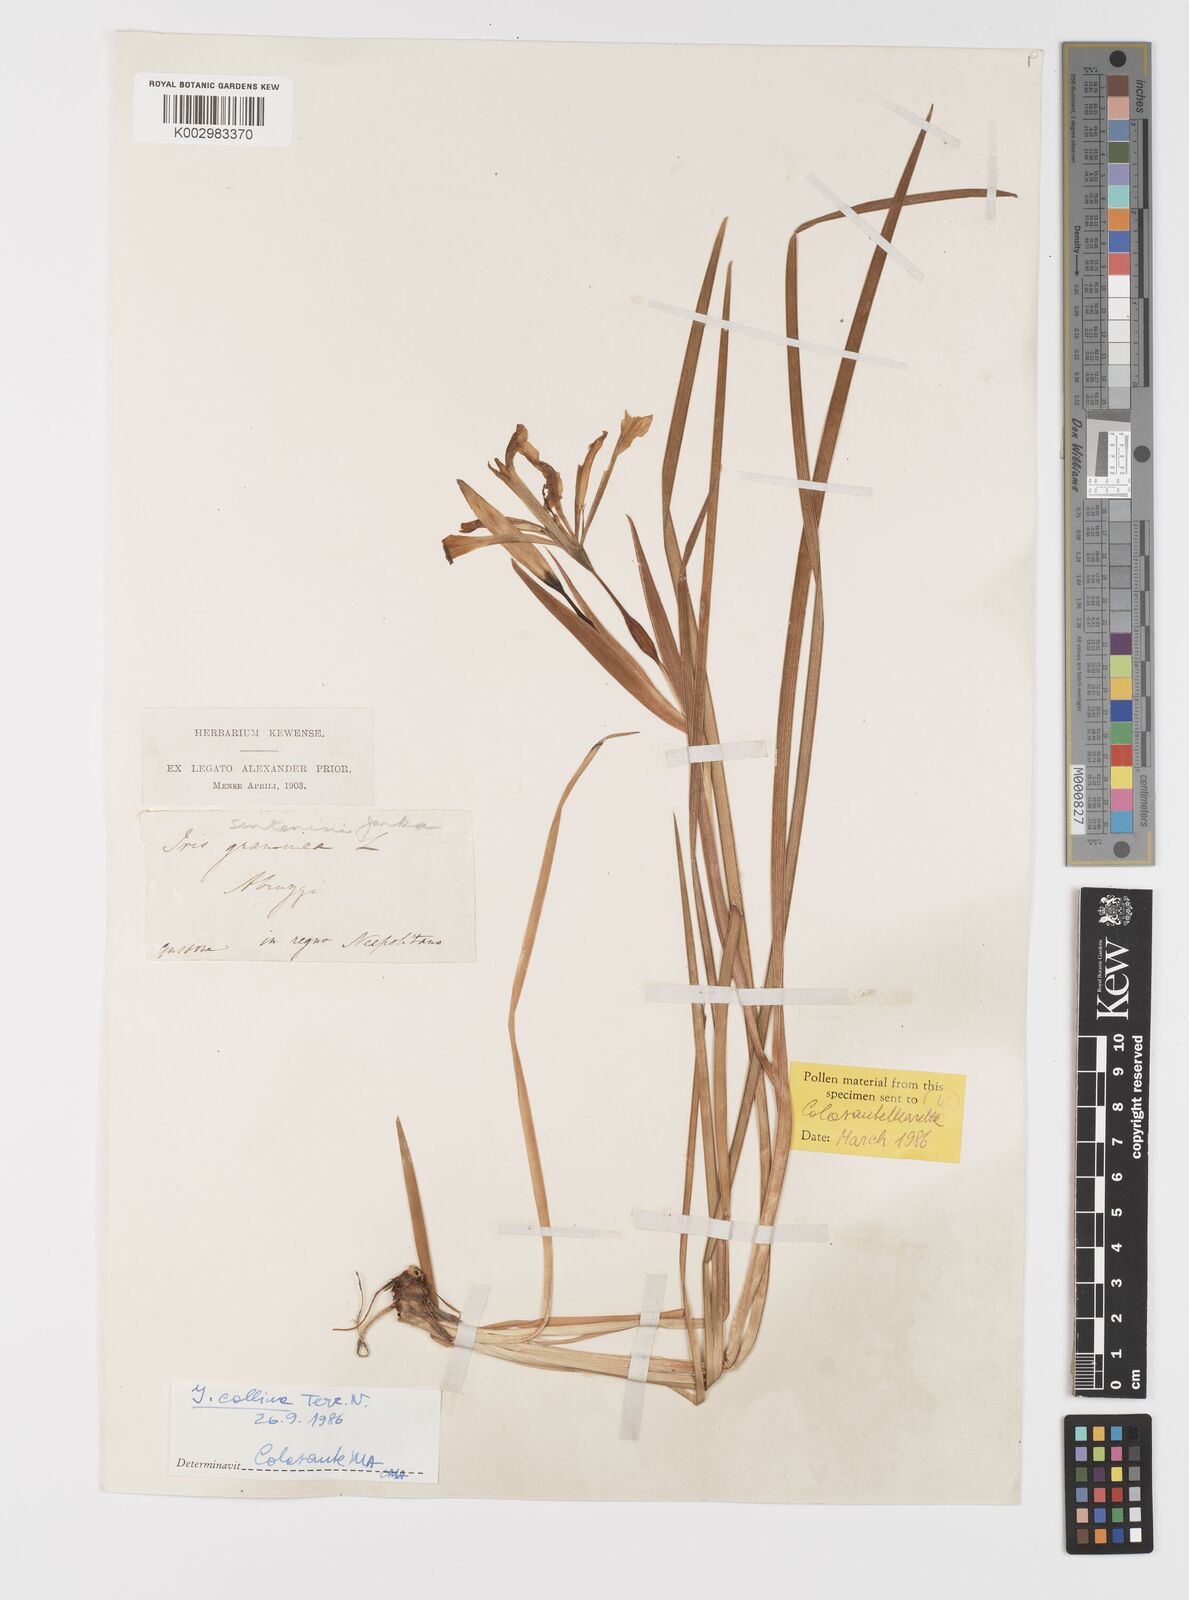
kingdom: Plantae
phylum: Tracheophyta
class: Liliopsida
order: Asparagales
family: Iridaceae
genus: Iris
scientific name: Iris sintenisii
